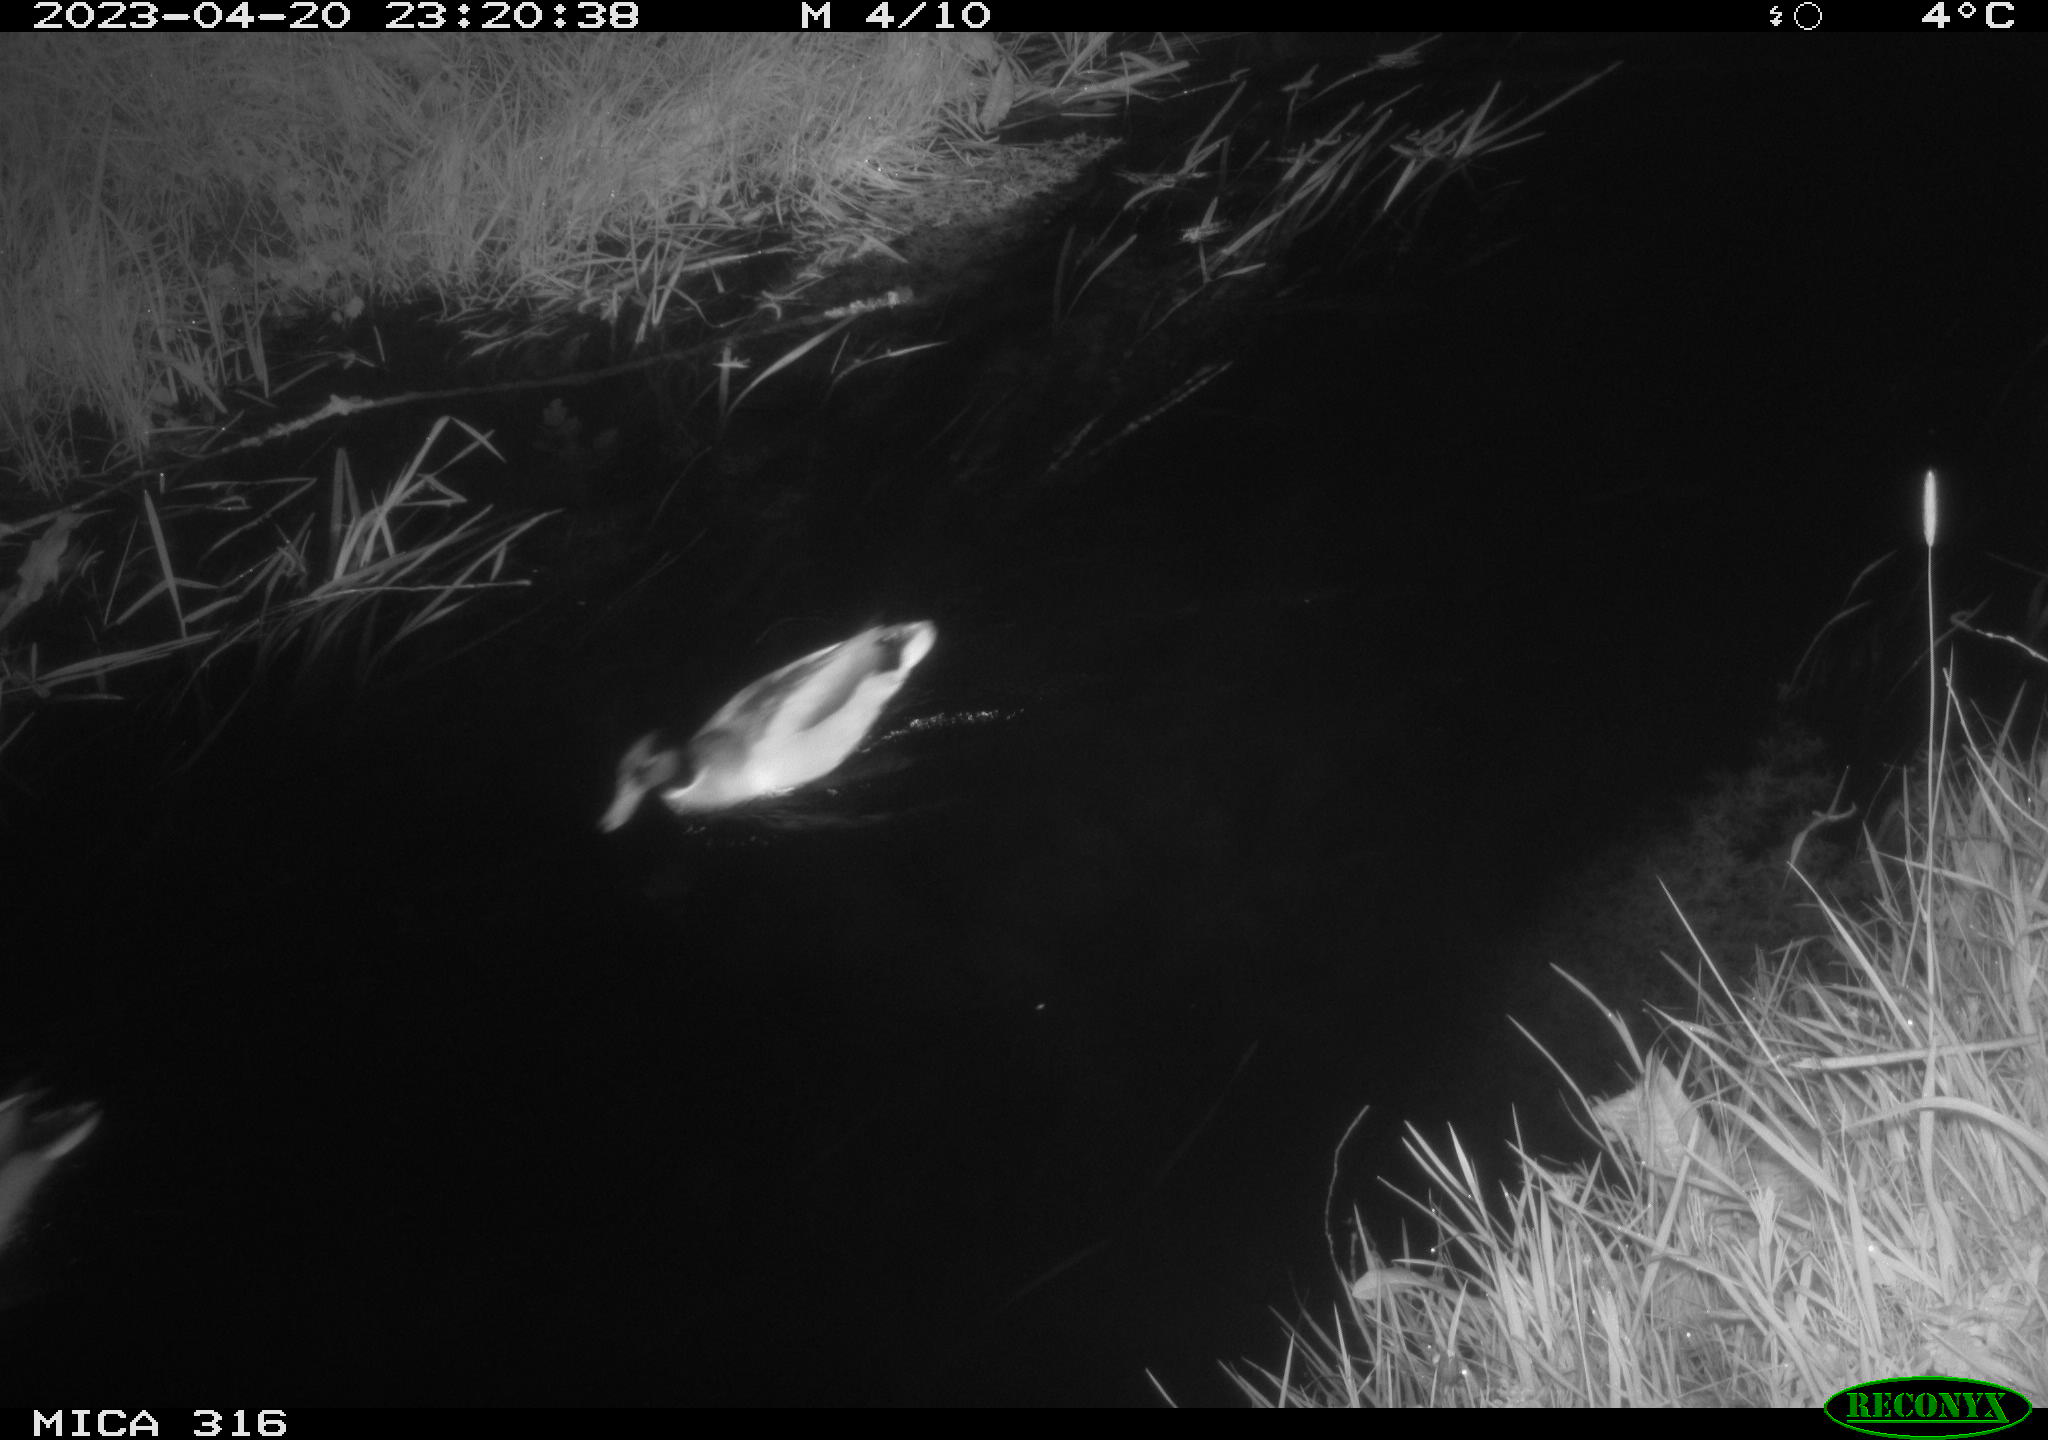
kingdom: Animalia
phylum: Chordata
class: Aves
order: Anseriformes
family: Anatidae
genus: Anas
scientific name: Anas
